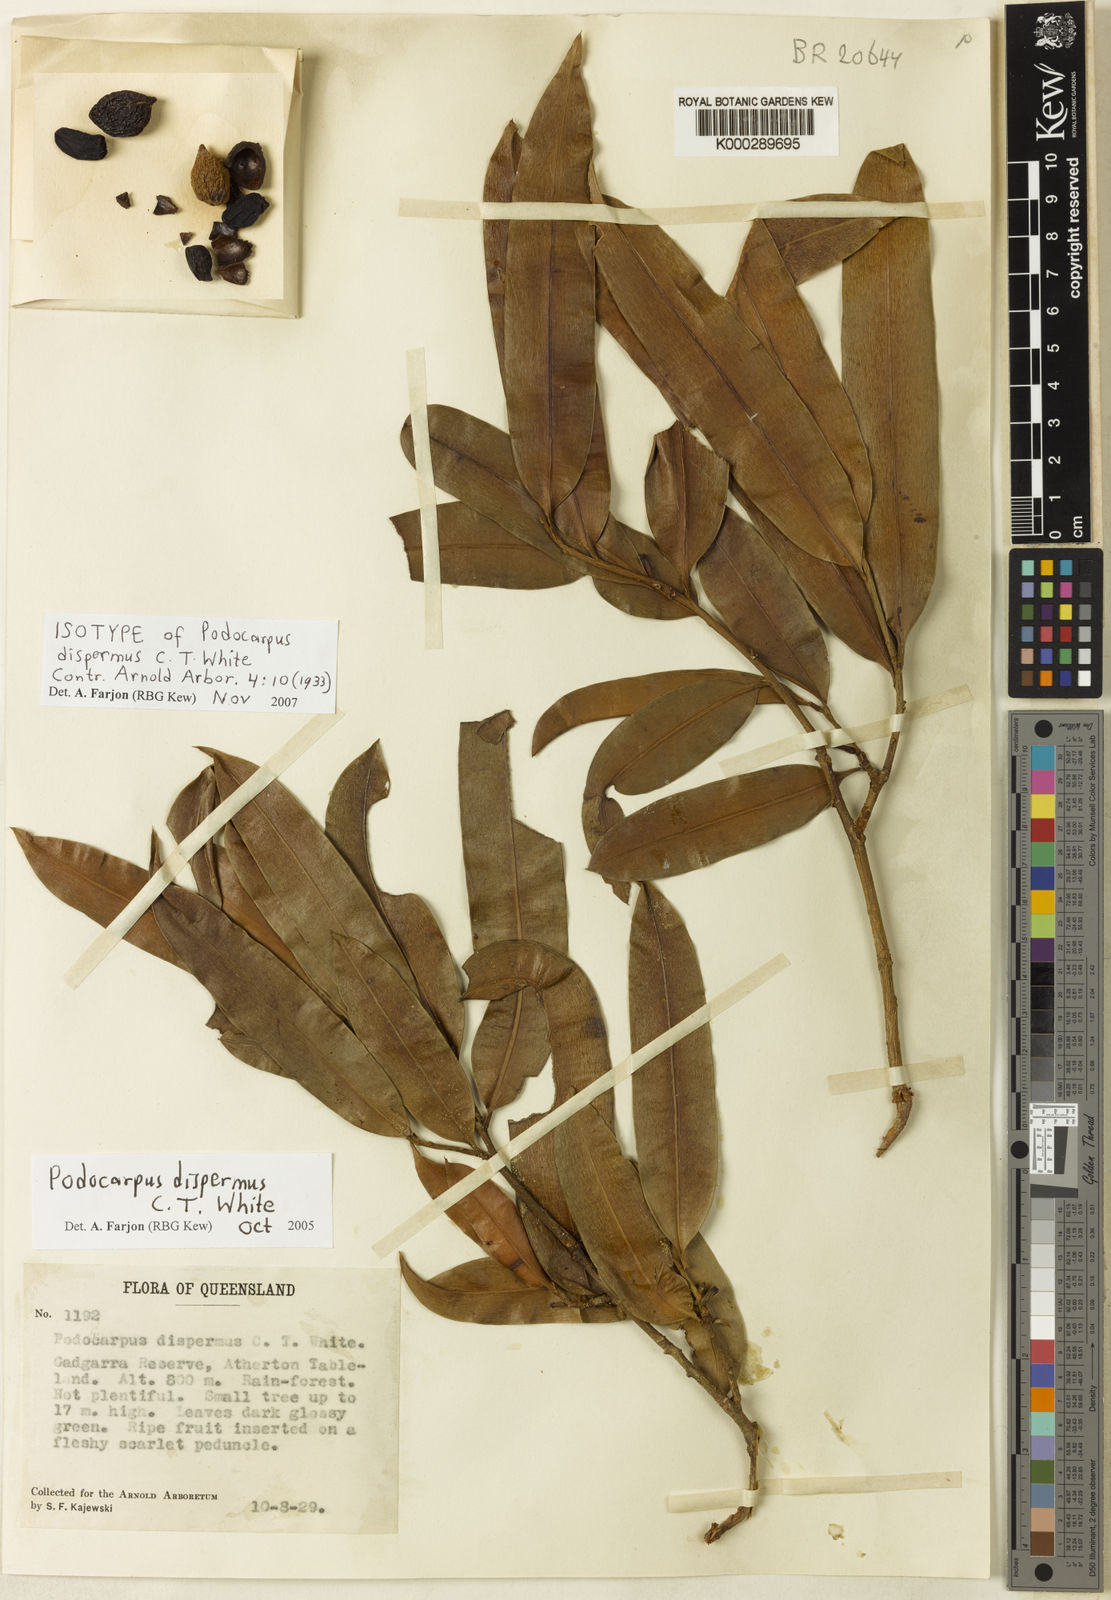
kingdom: Plantae
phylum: Tracheophyta
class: Pinopsida
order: Pinales
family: Podocarpaceae
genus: Podocarpus
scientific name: Podocarpus dispermus
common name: Broad-leaved brown pine
